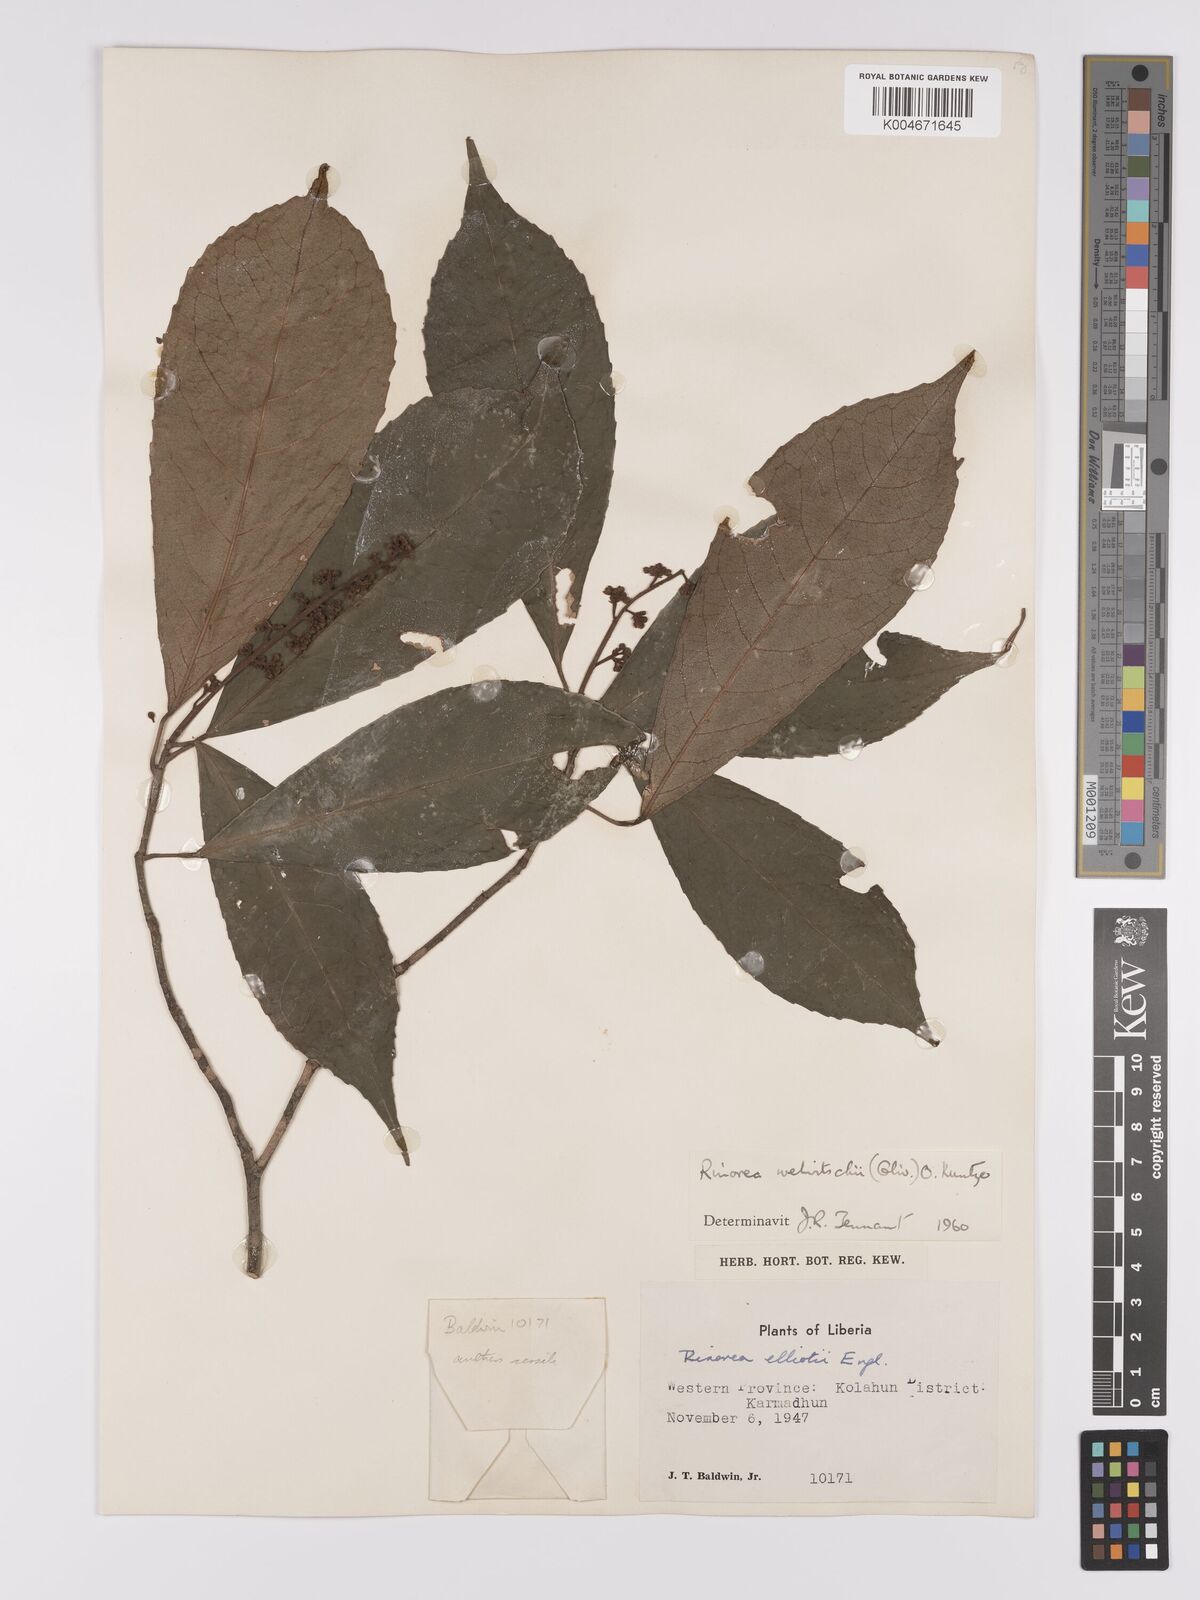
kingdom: Plantae
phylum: Tracheophyta
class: Magnoliopsida
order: Malpighiales
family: Violaceae
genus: Rinorea
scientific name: Rinorea welwitschii
